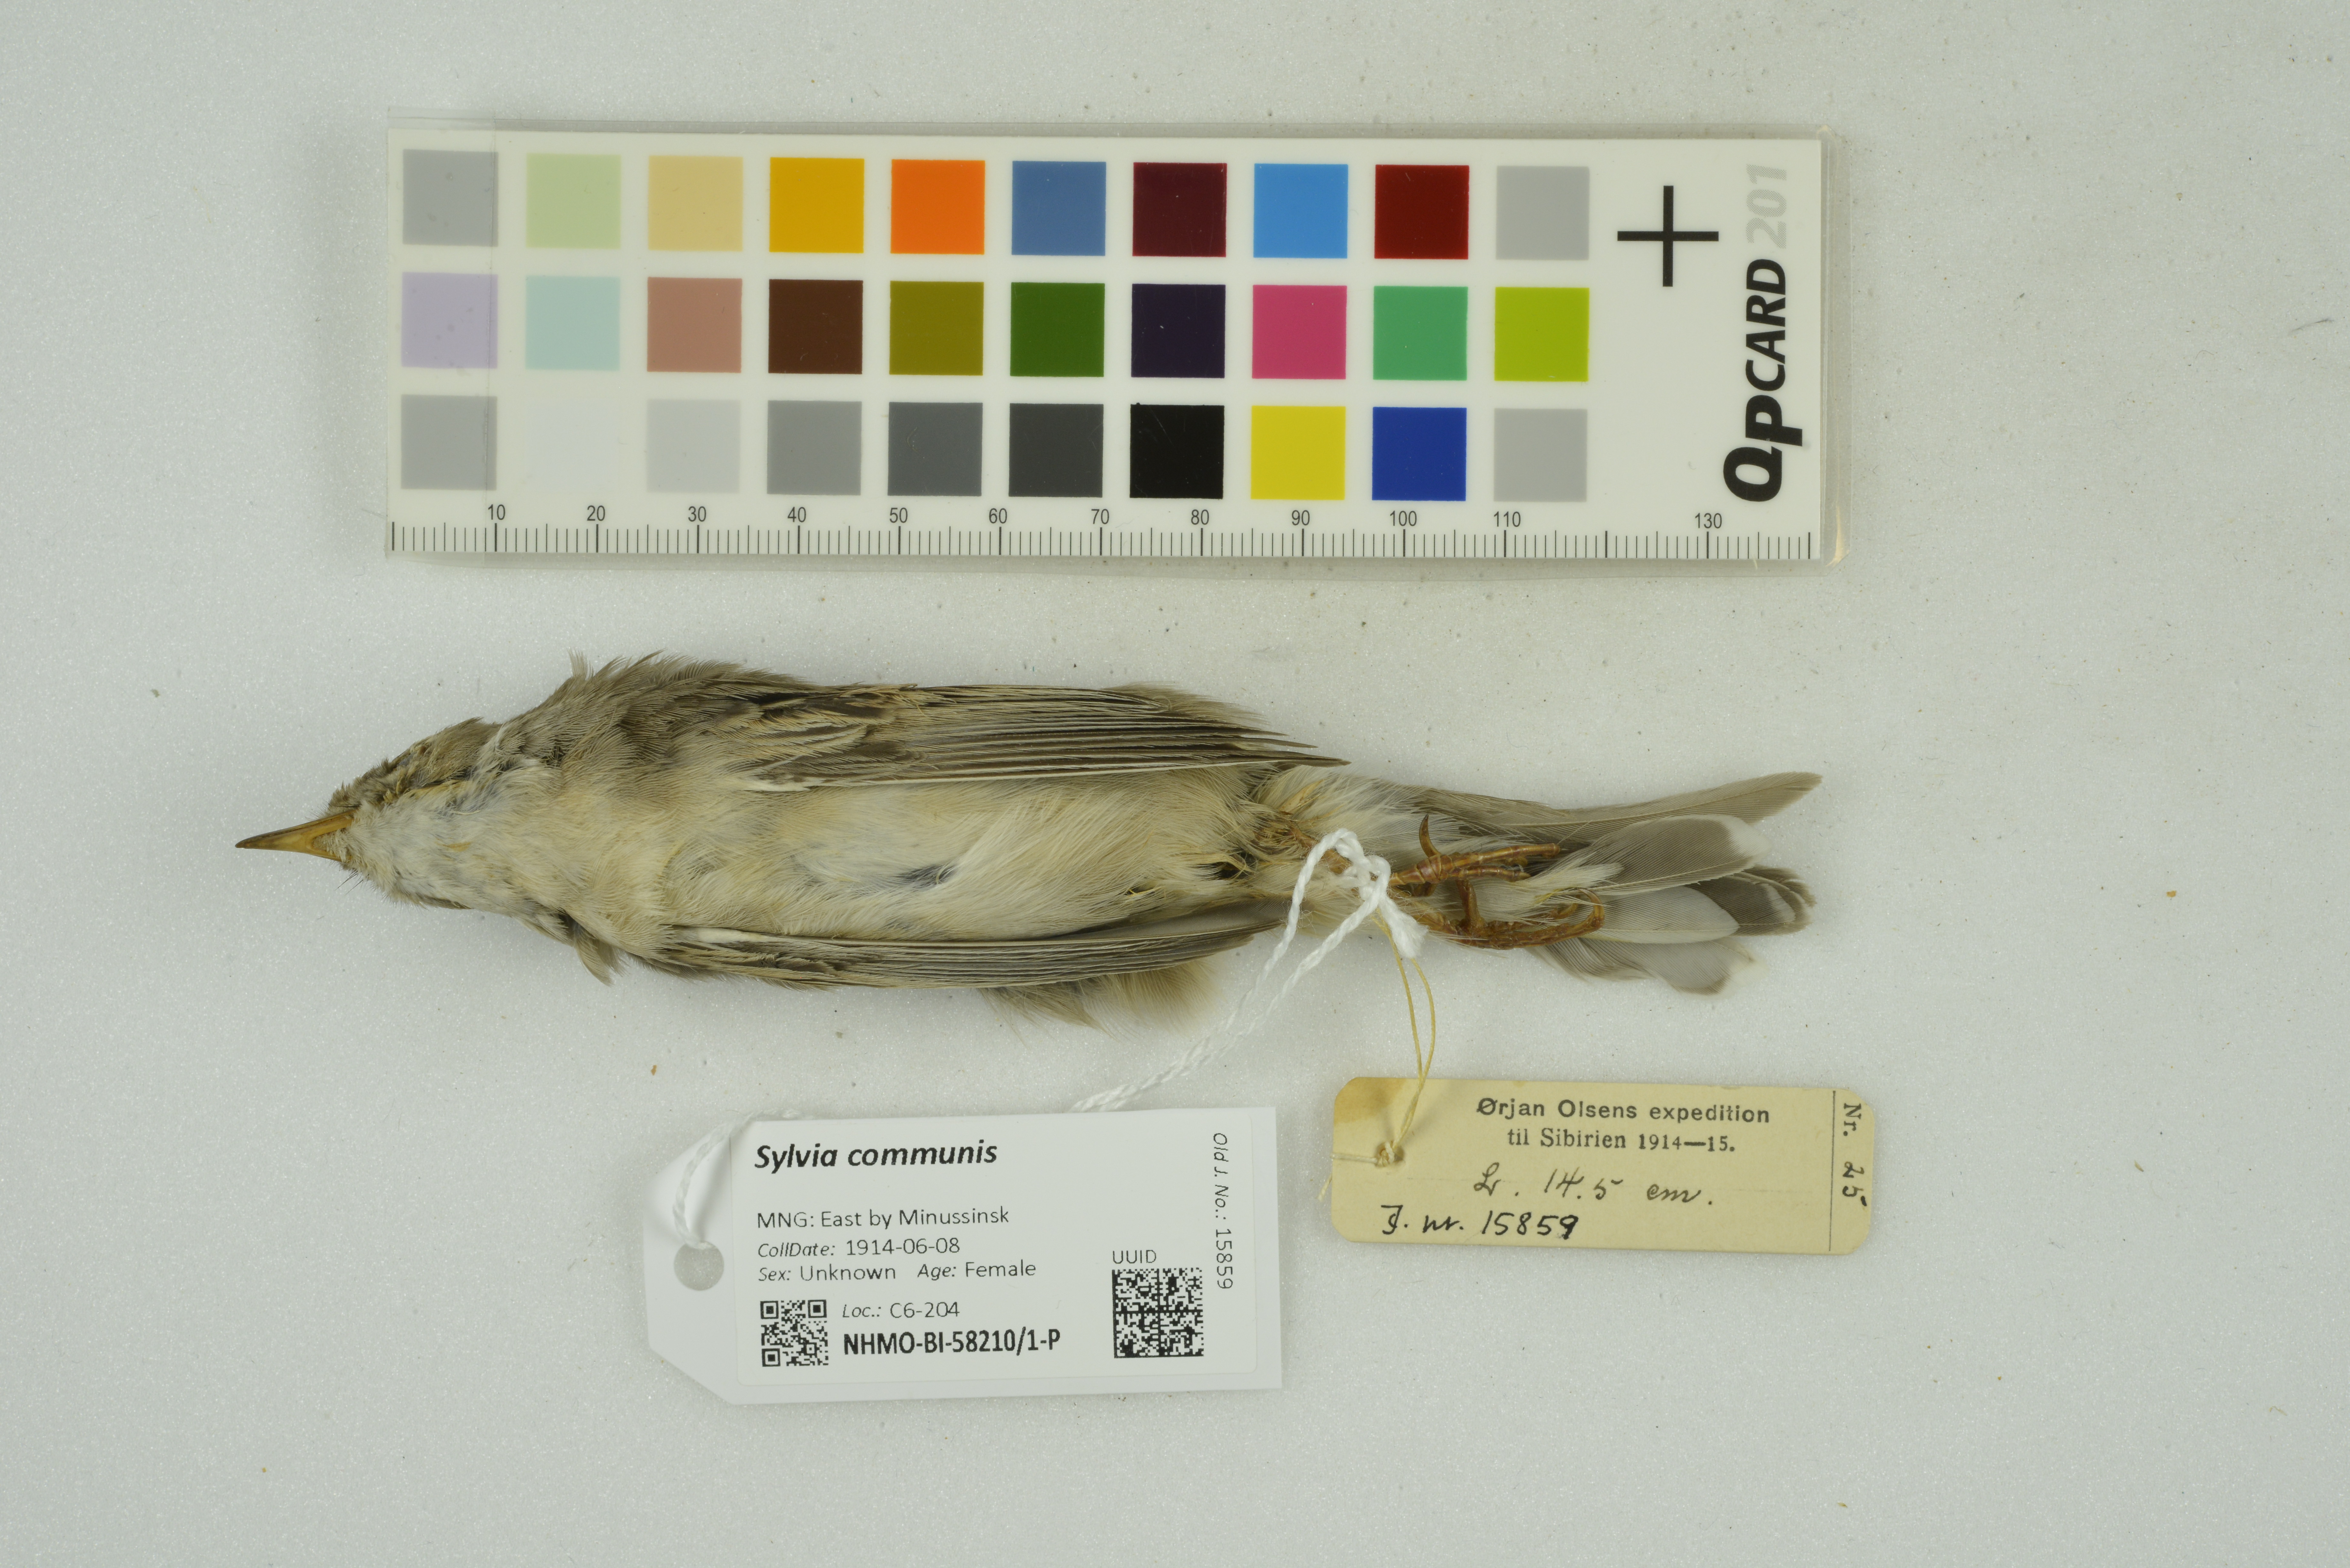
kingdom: Animalia
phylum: Chordata
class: Aves
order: Passeriformes
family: Sylviidae
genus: Sylvia
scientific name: Sylvia communis
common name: Common whitethroat
